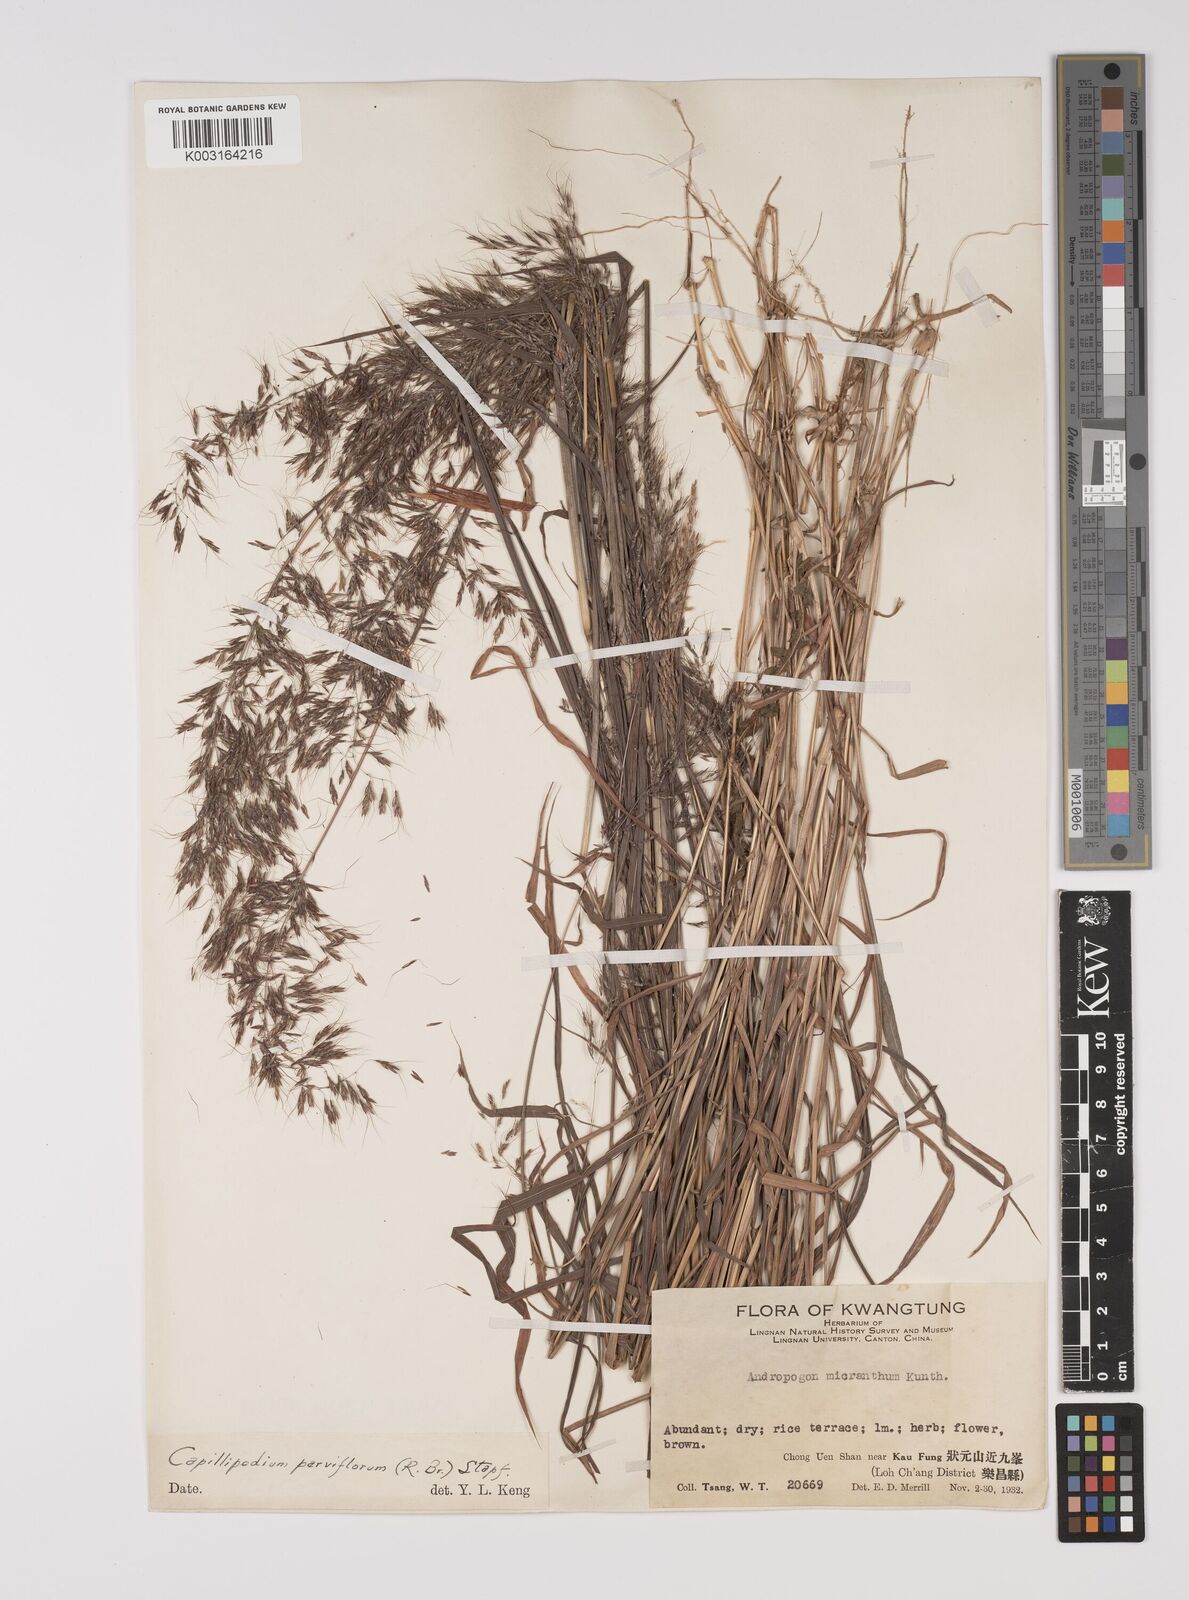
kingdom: Plantae
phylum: Tracheophyta
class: Liliopsida
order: Poales
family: Poaceae
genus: Capillipedium
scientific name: Capillipedium parviflorum
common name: Golden-beard
